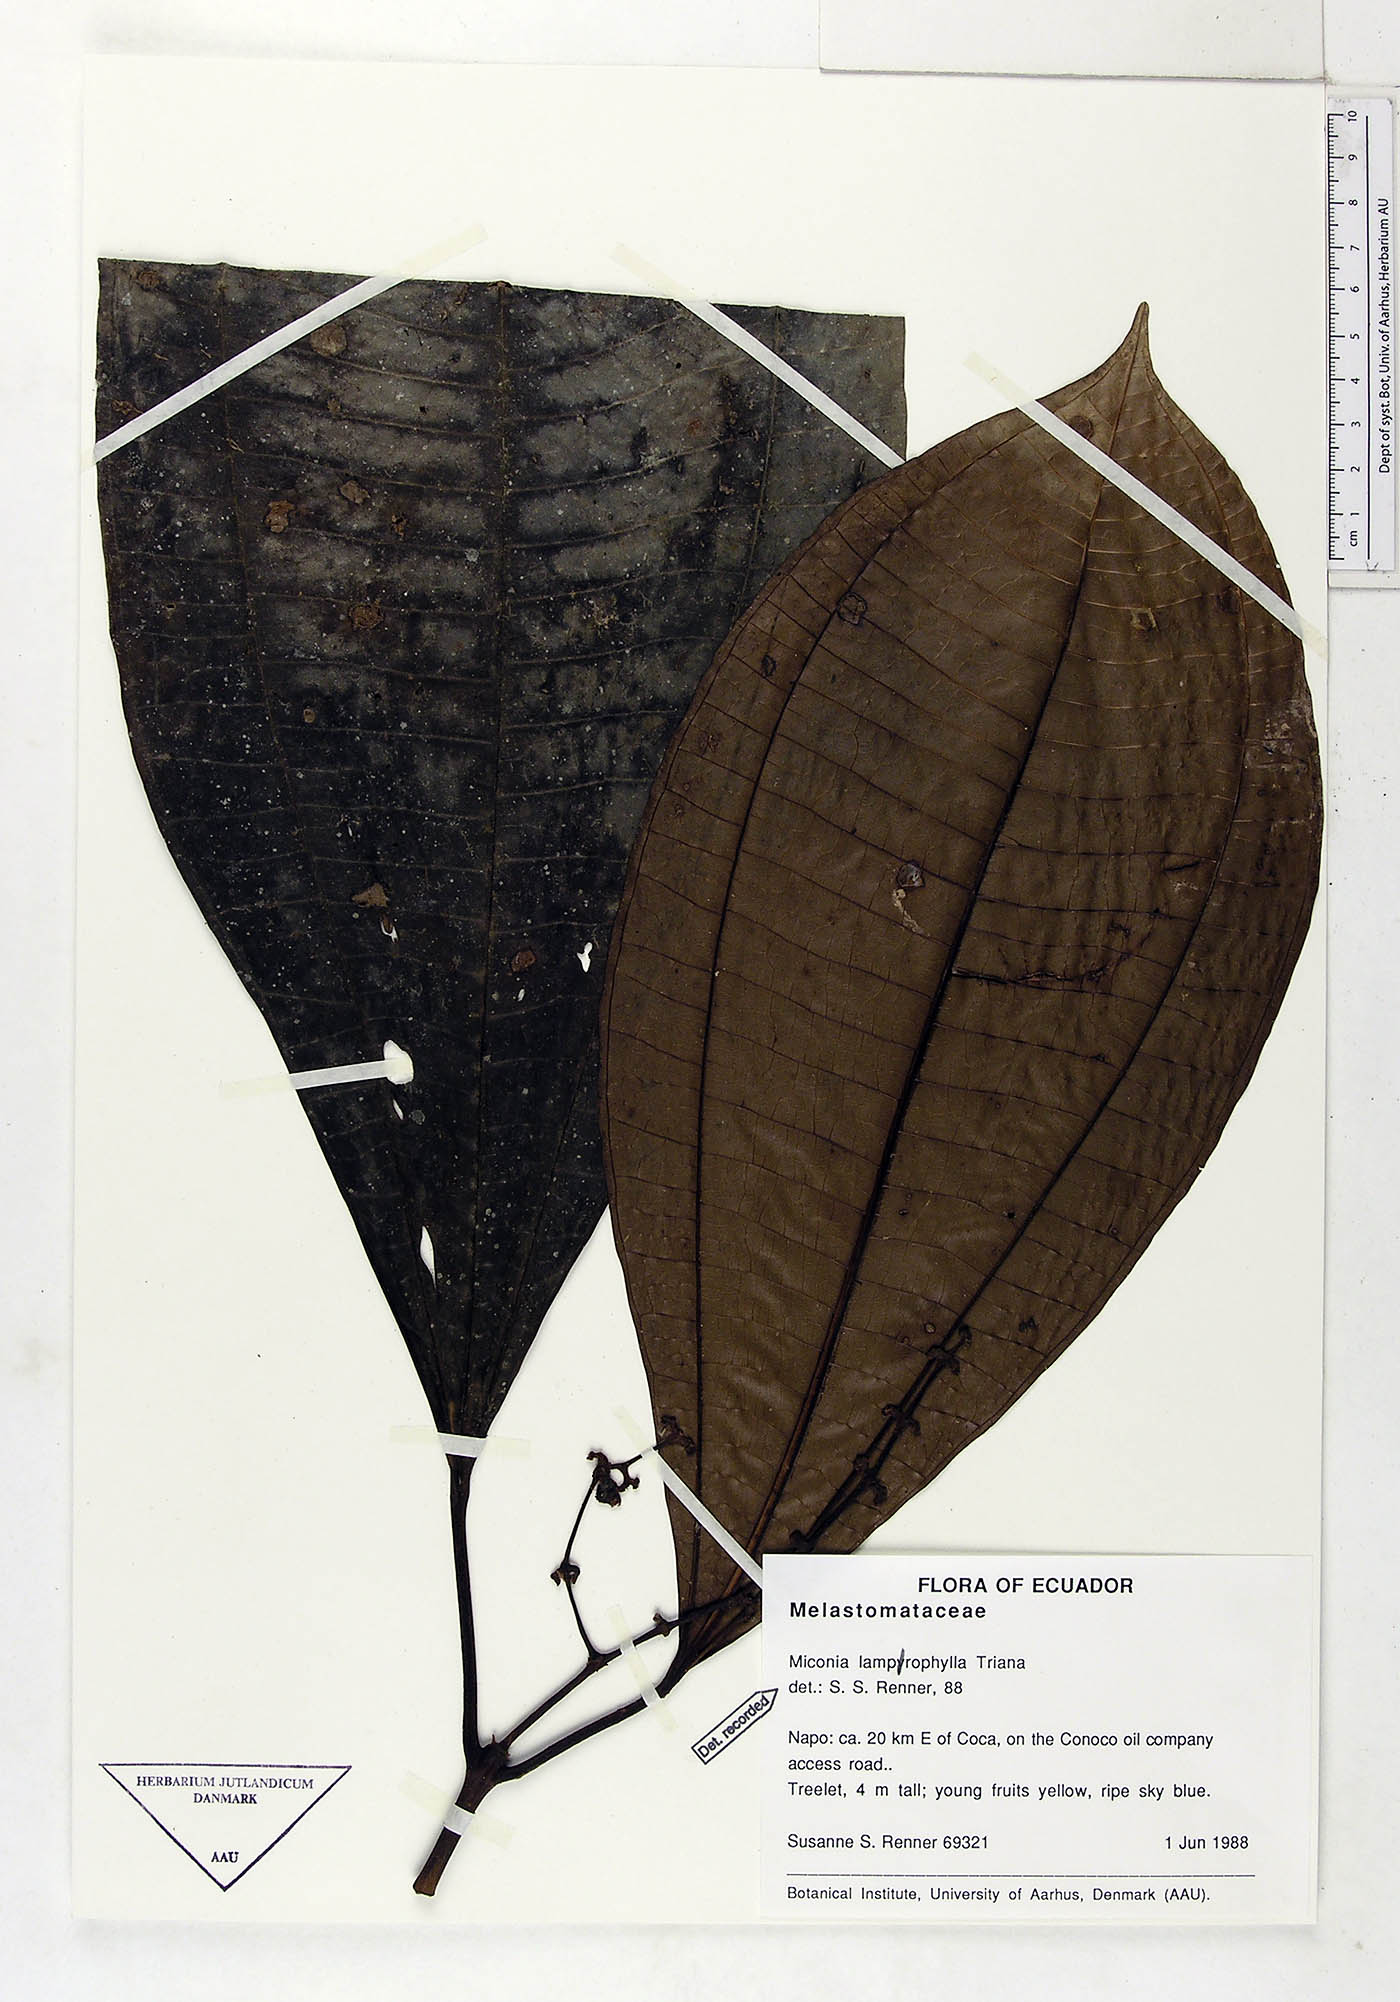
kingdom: Plantae
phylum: Tracheophyta
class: Magnoliopsida
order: Myrtales
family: Melastomataceae
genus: Miconia
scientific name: Miconia lamprophylla
